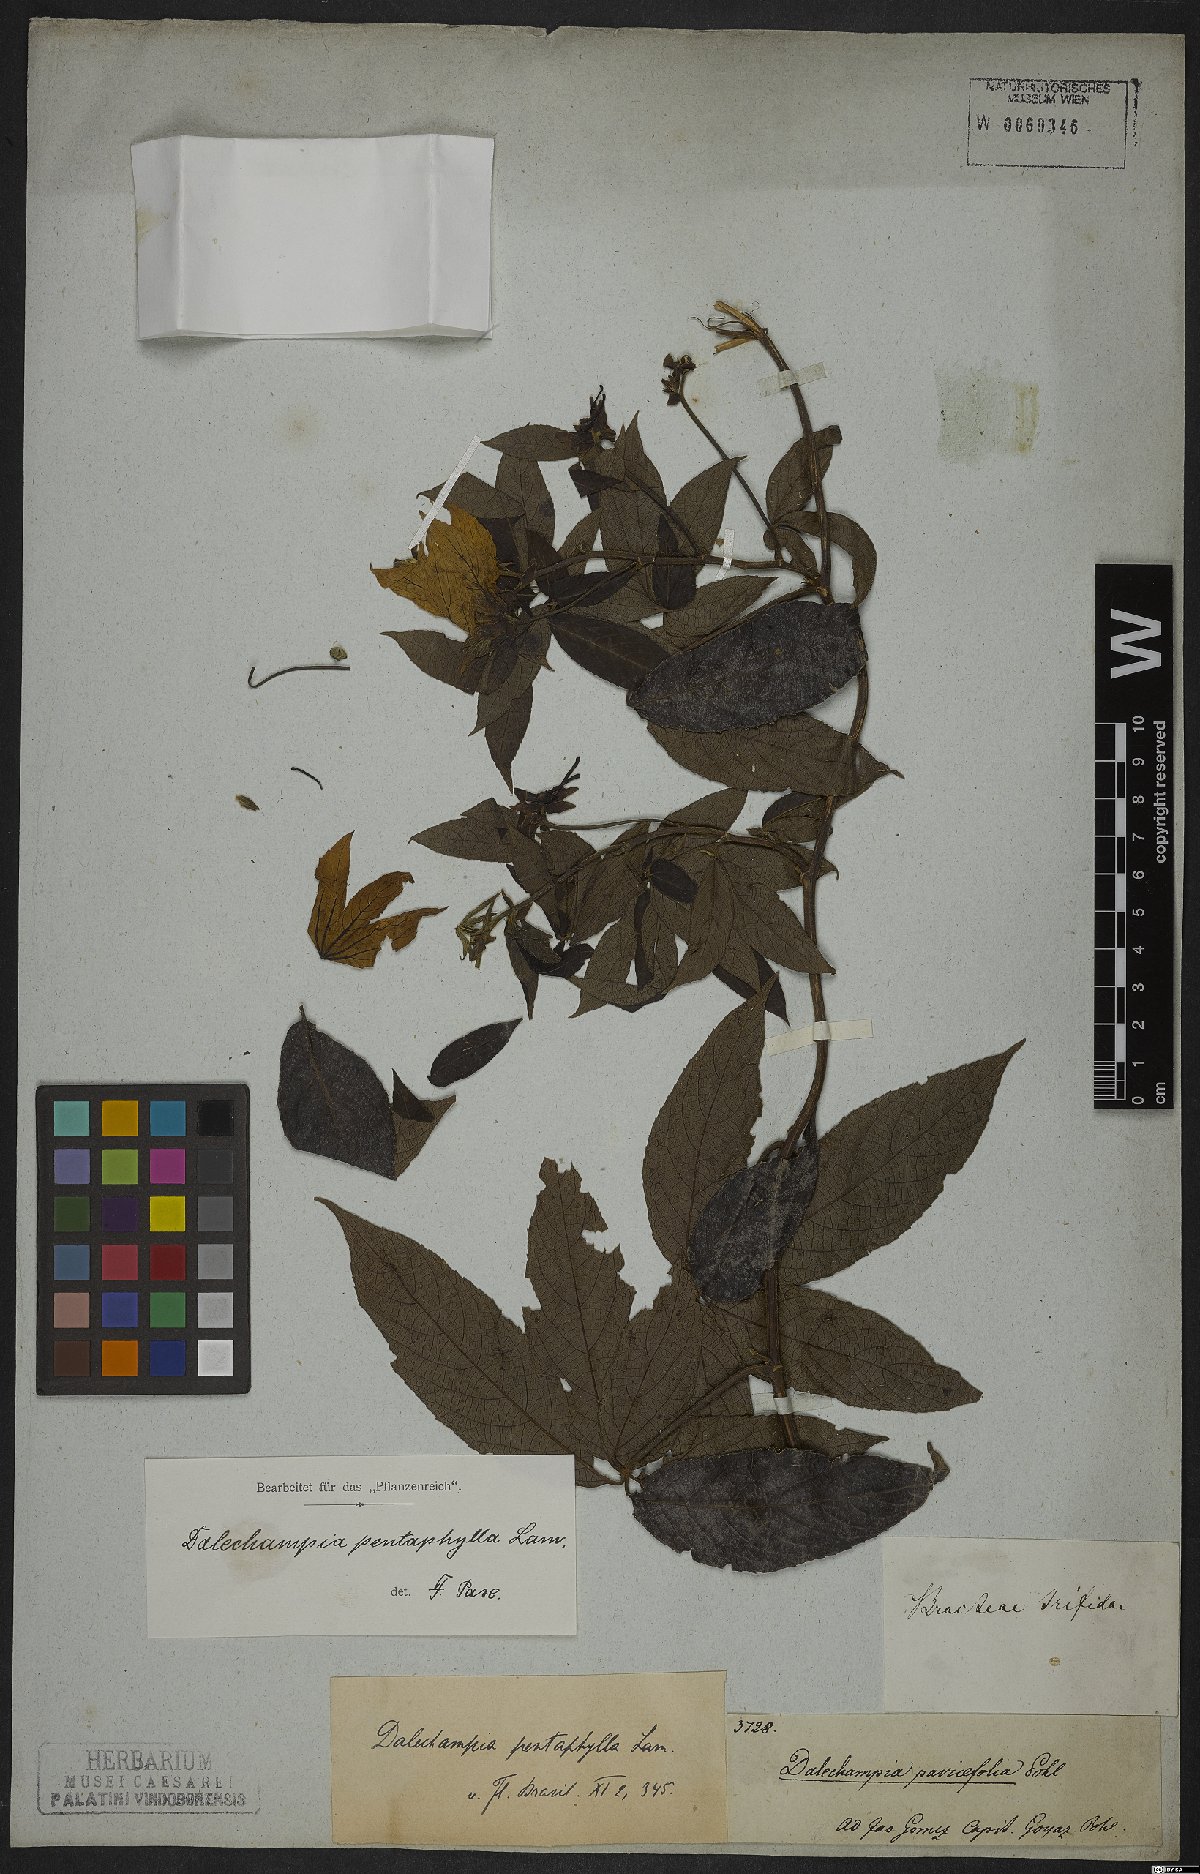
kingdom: Plantae
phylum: Tracheophyta
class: Magnoliopsida
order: Malpighiales
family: Euphorbiaceae
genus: Dalechampia
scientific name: Dalechampia pentaphylla
